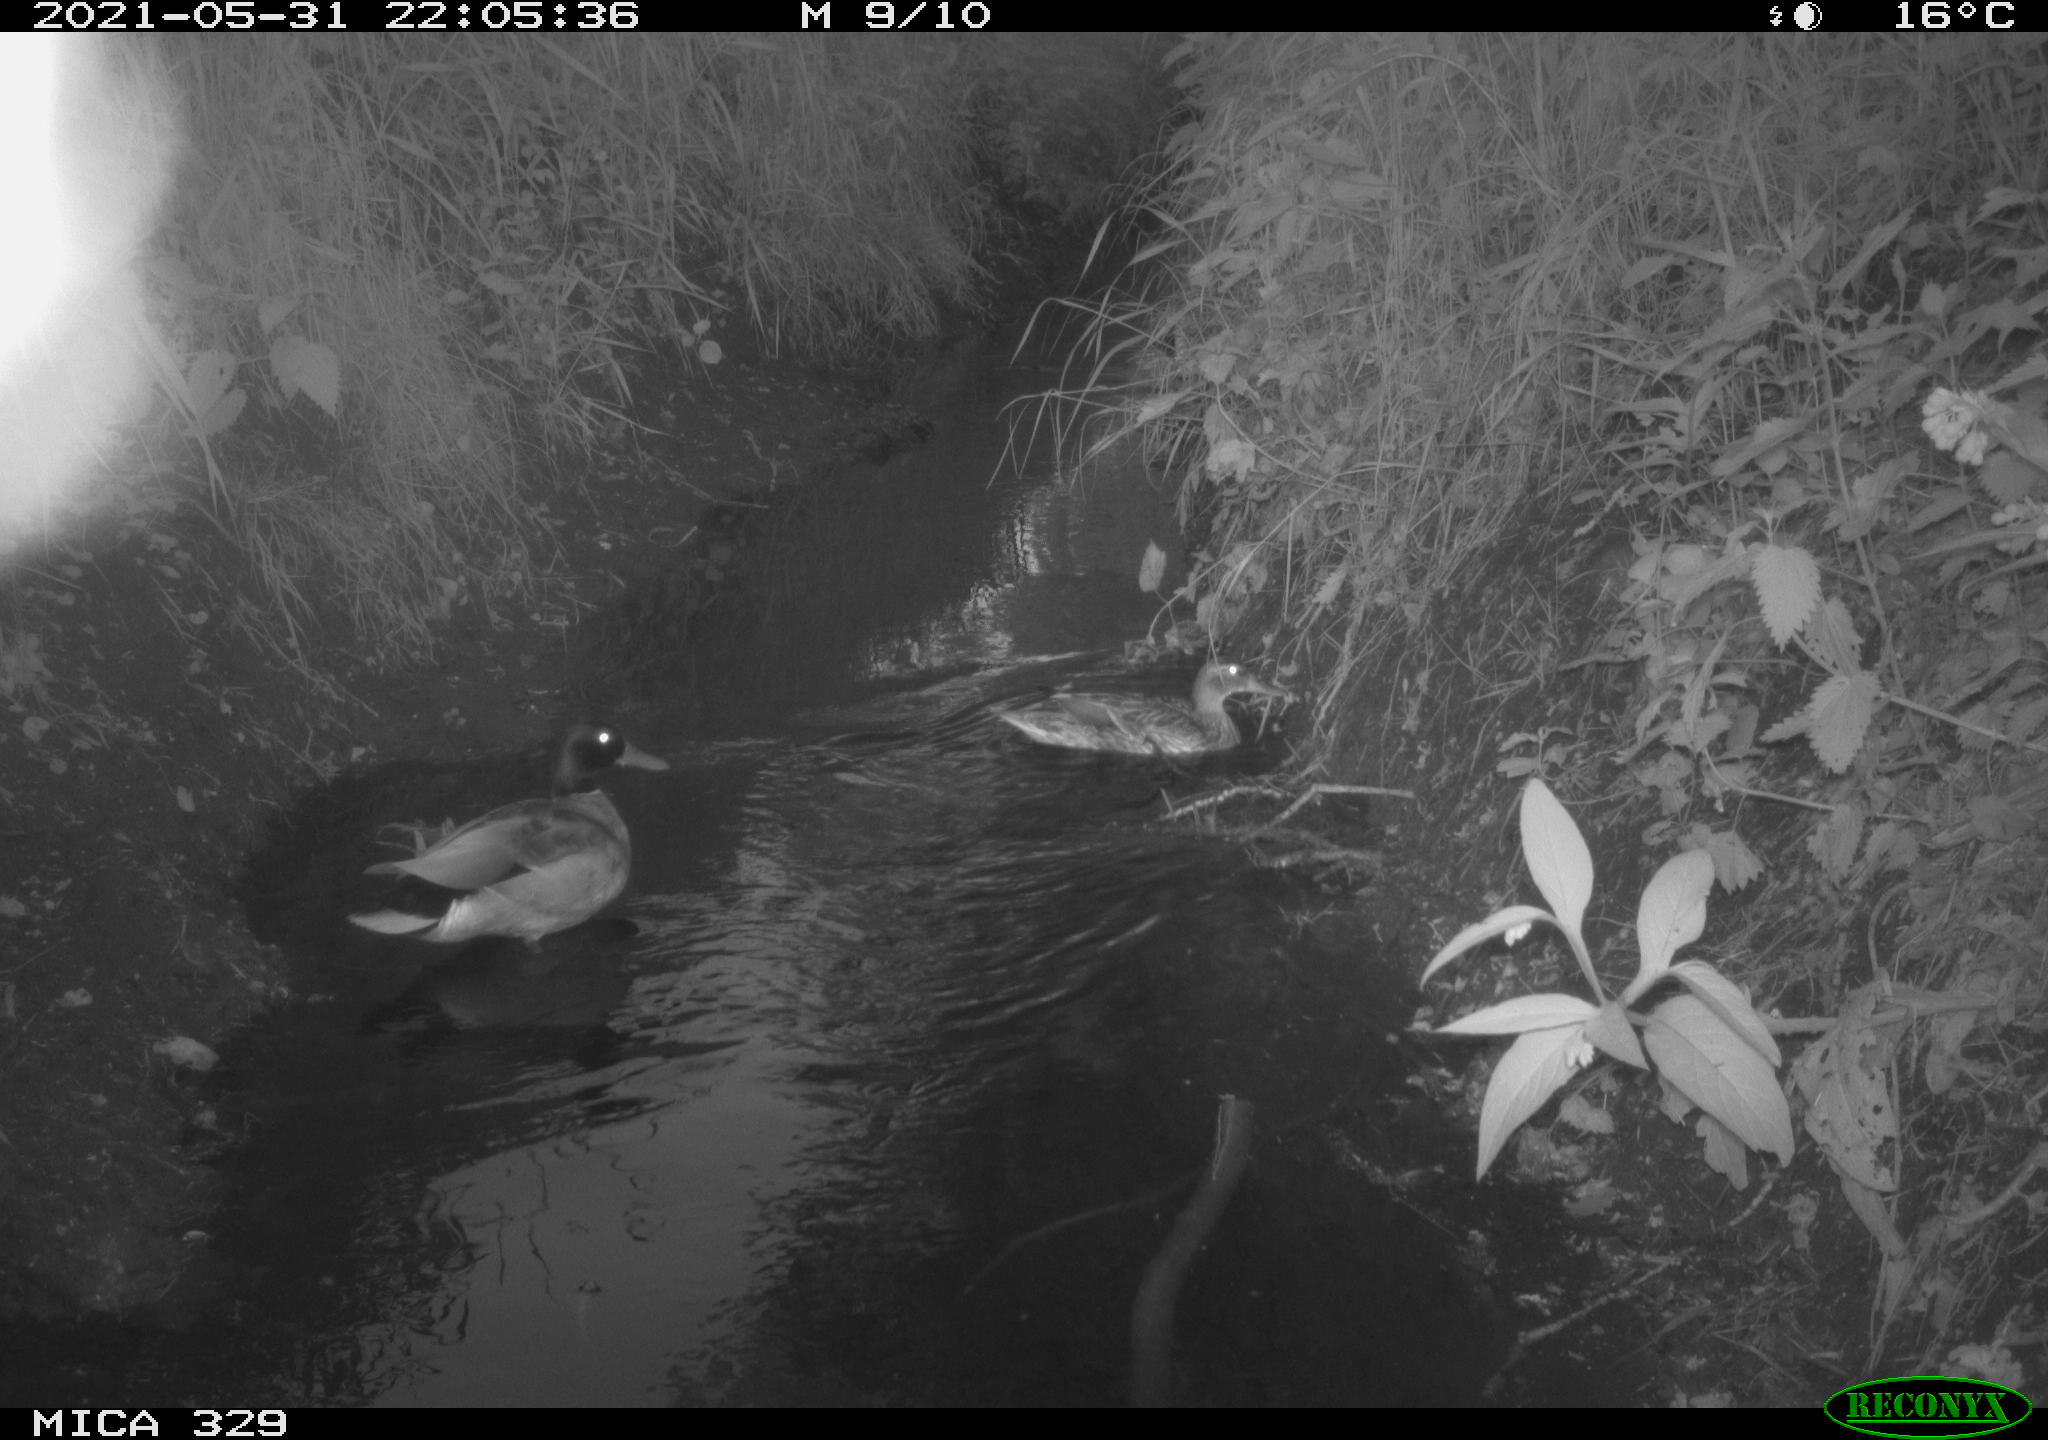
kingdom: Animalia
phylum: Chordata
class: Aves
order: Anseriformes
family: Anatidae
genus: Anas
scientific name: Anas platyrhynchos
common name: Mallard
